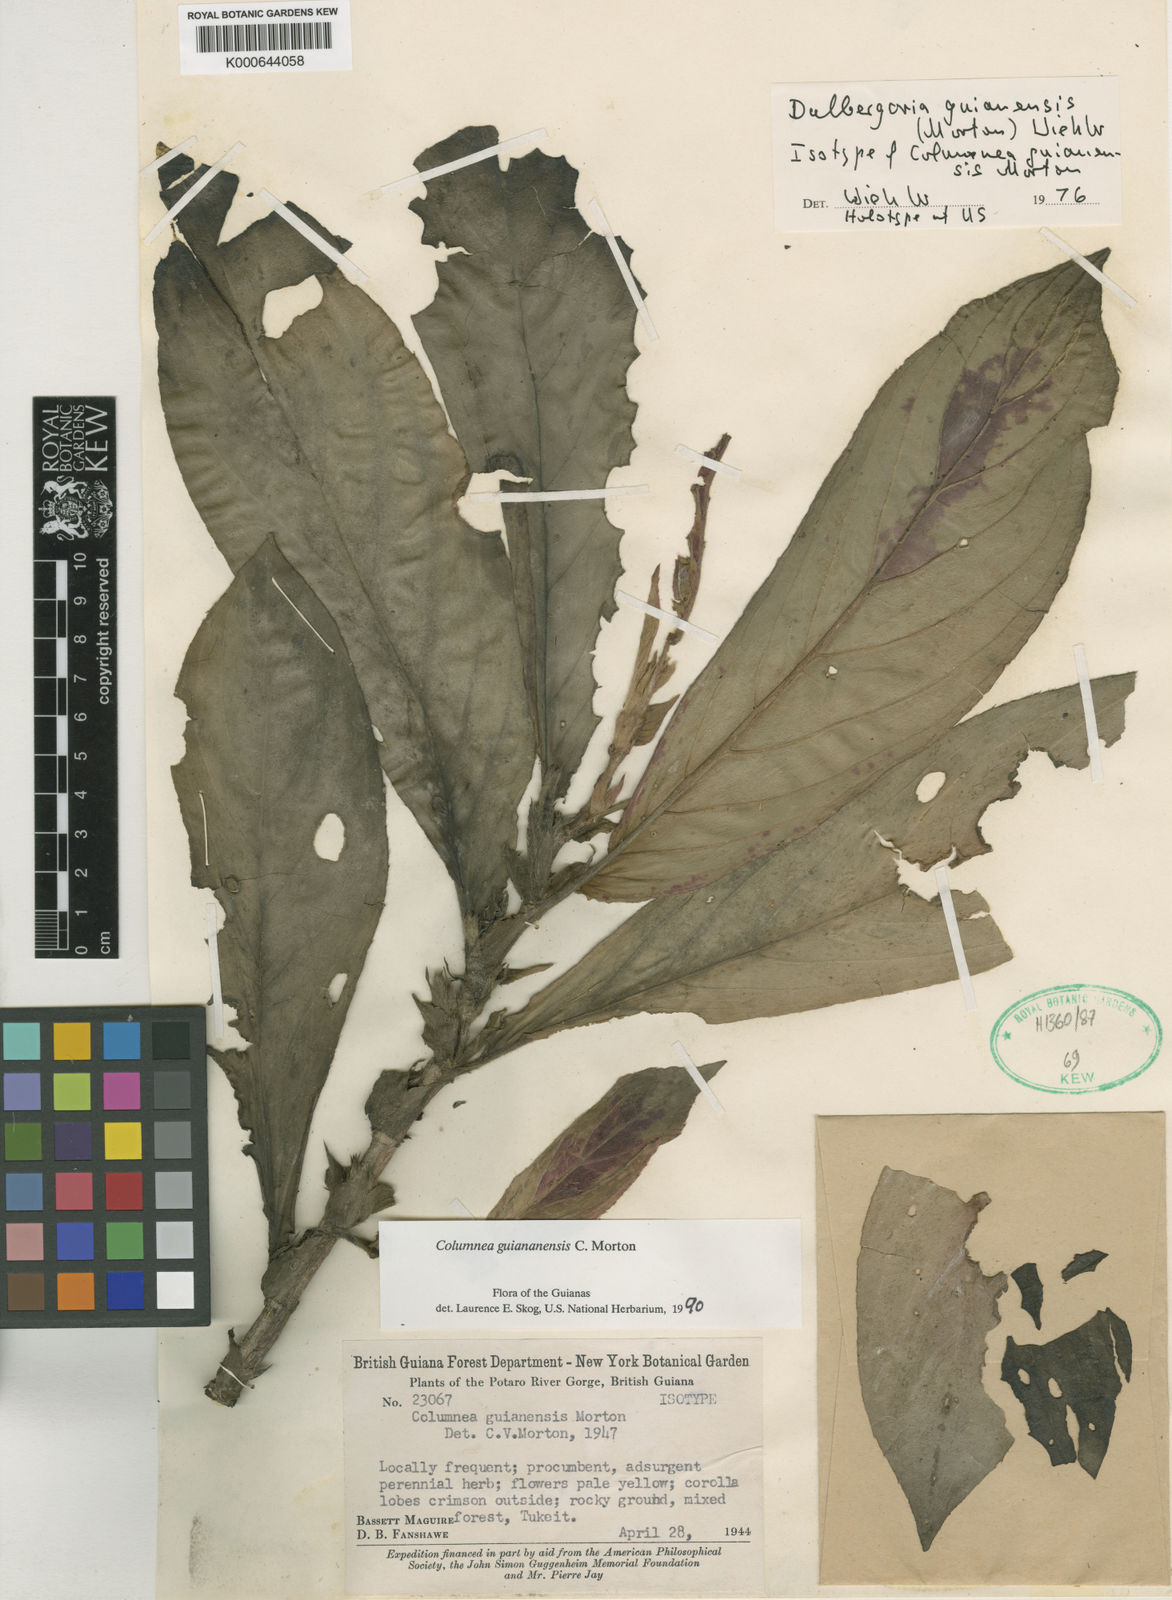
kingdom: Plantae
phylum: Tracheophyta
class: Magnoliopsida
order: Lamiales
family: Gesneriaceae
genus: Columnea
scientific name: Columnea guianensis
